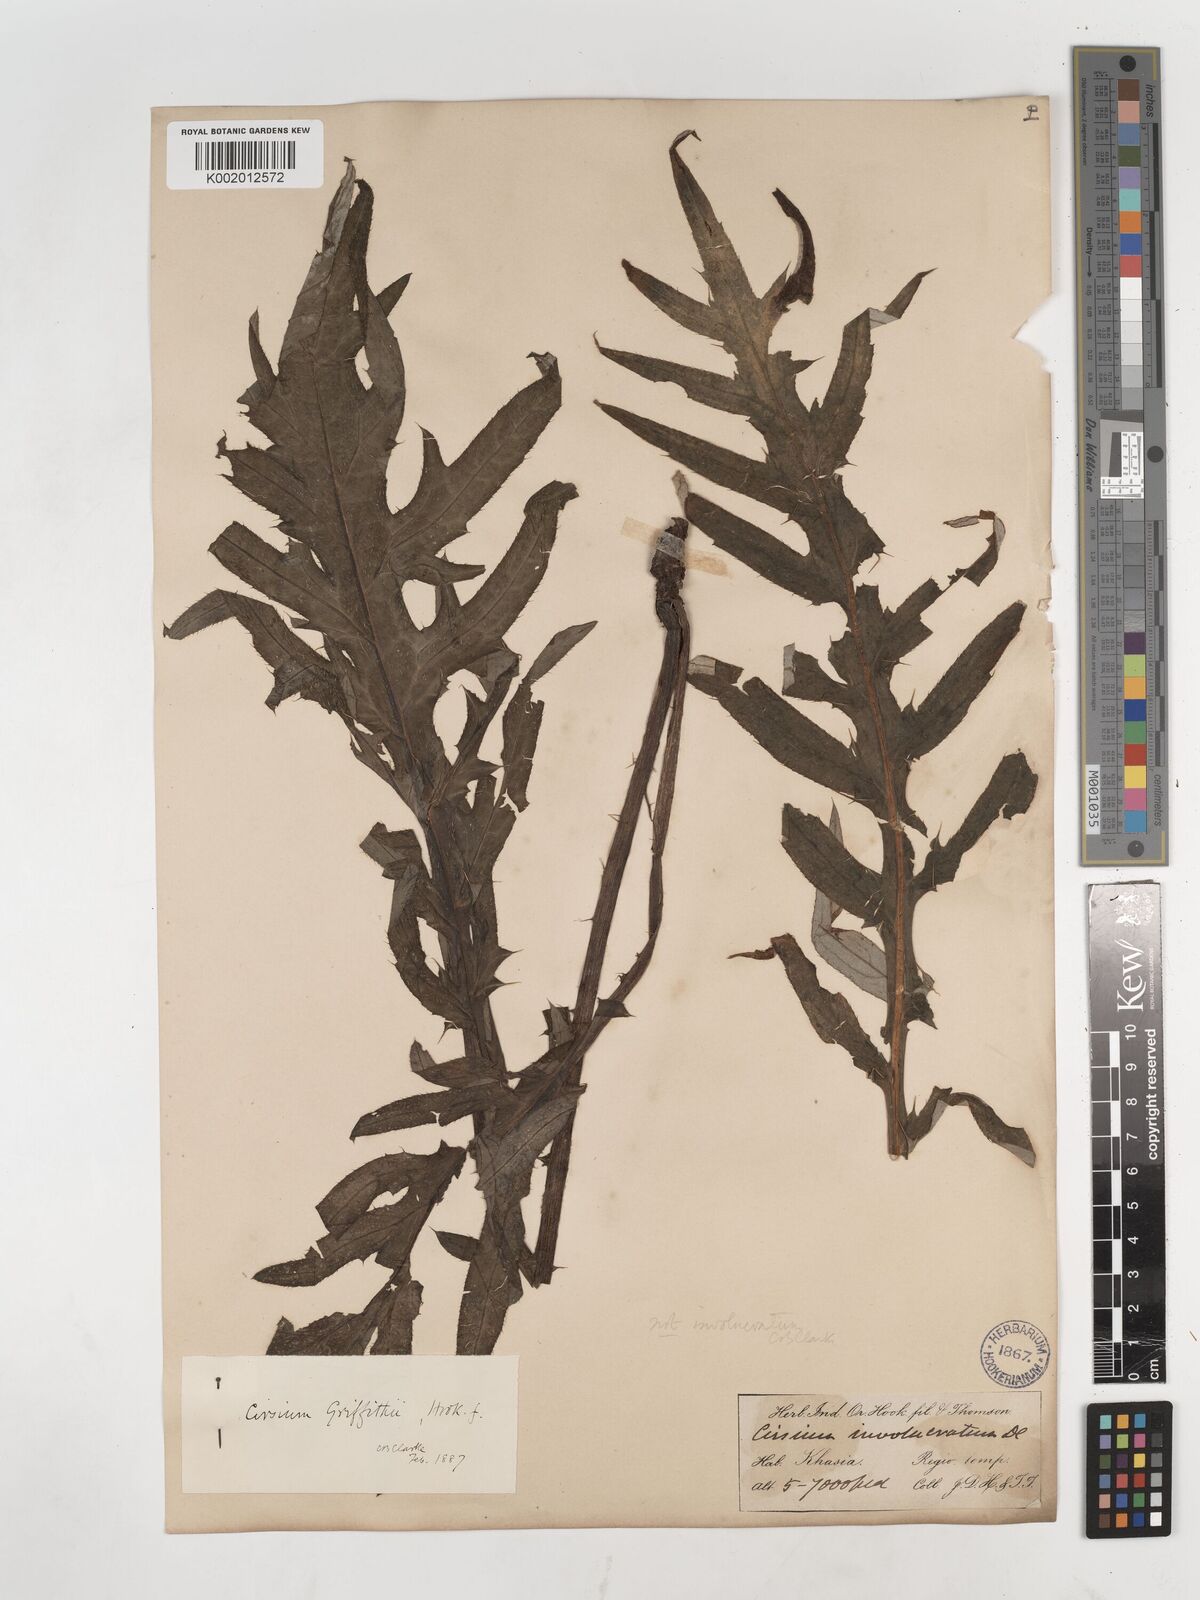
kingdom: Plantae
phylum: Tracheophyta
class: Magnoliopsida
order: Asterales
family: Asteraceae
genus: Lophiolepis
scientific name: Lophiolepis griffithii
